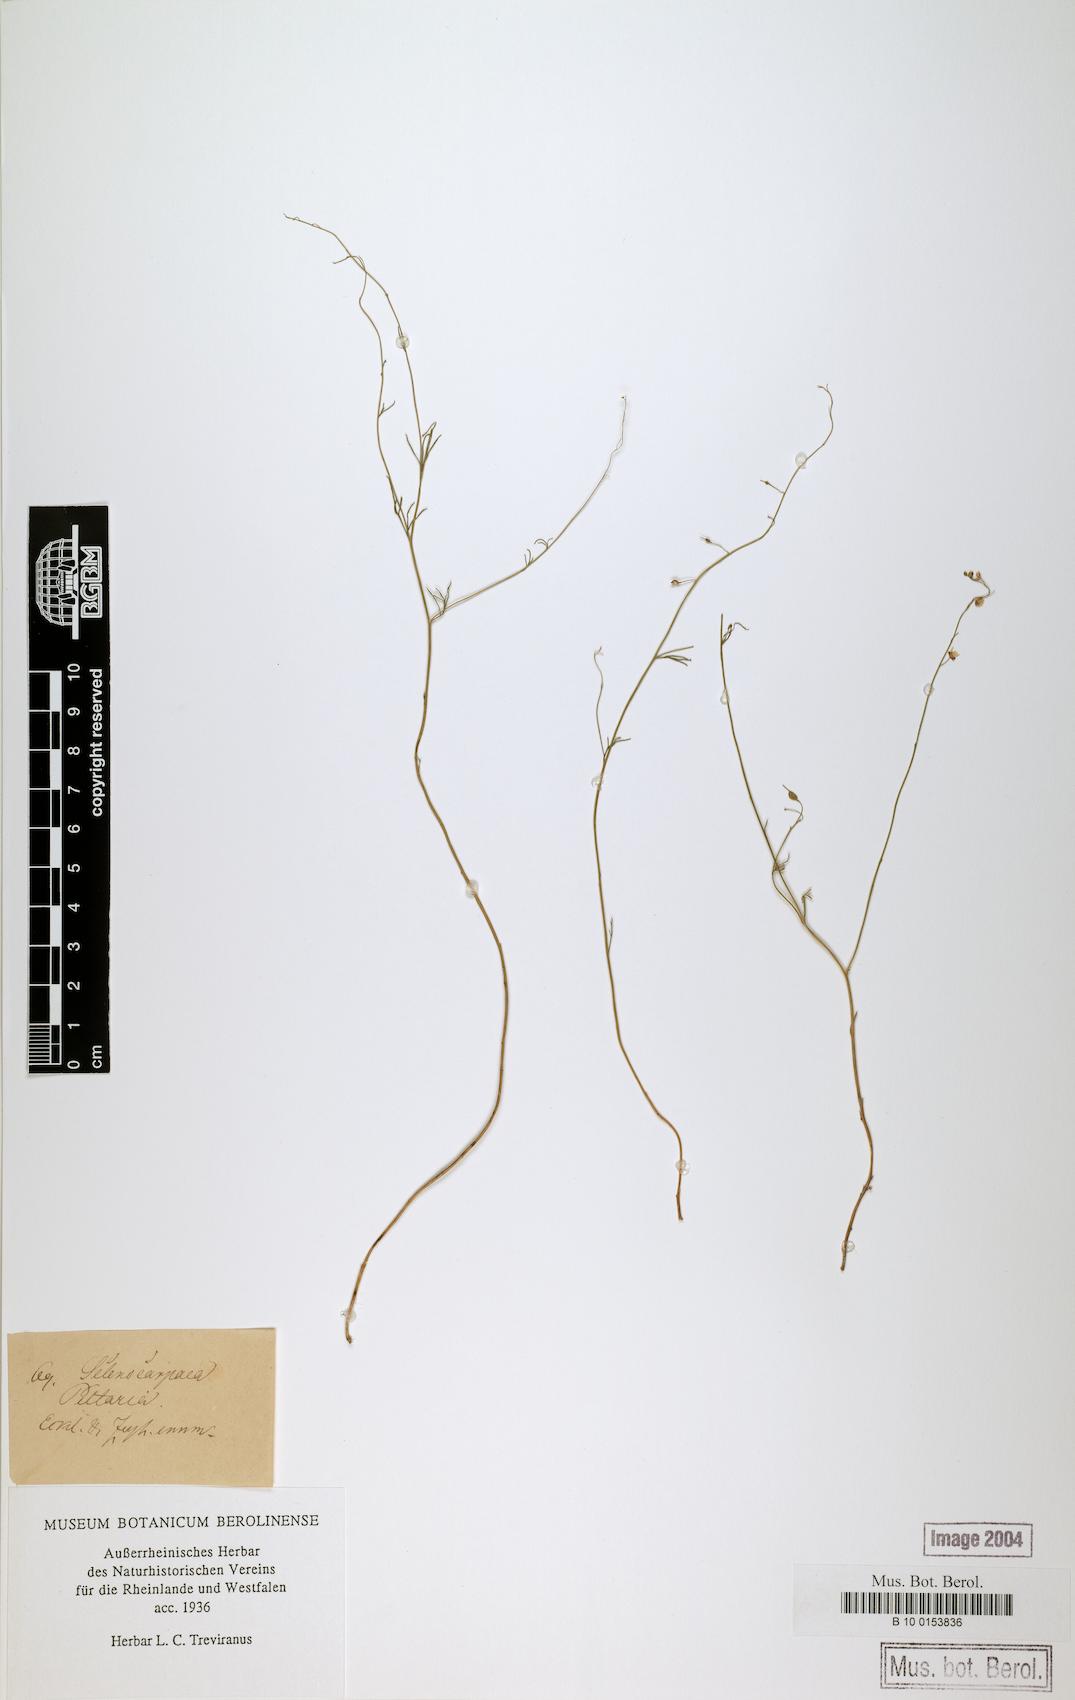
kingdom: Plantae
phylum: Tracheophyta
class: Magnoliopsida
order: Brassicales
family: Brassicaceae
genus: Heliophila
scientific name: Heliophila diffusa
